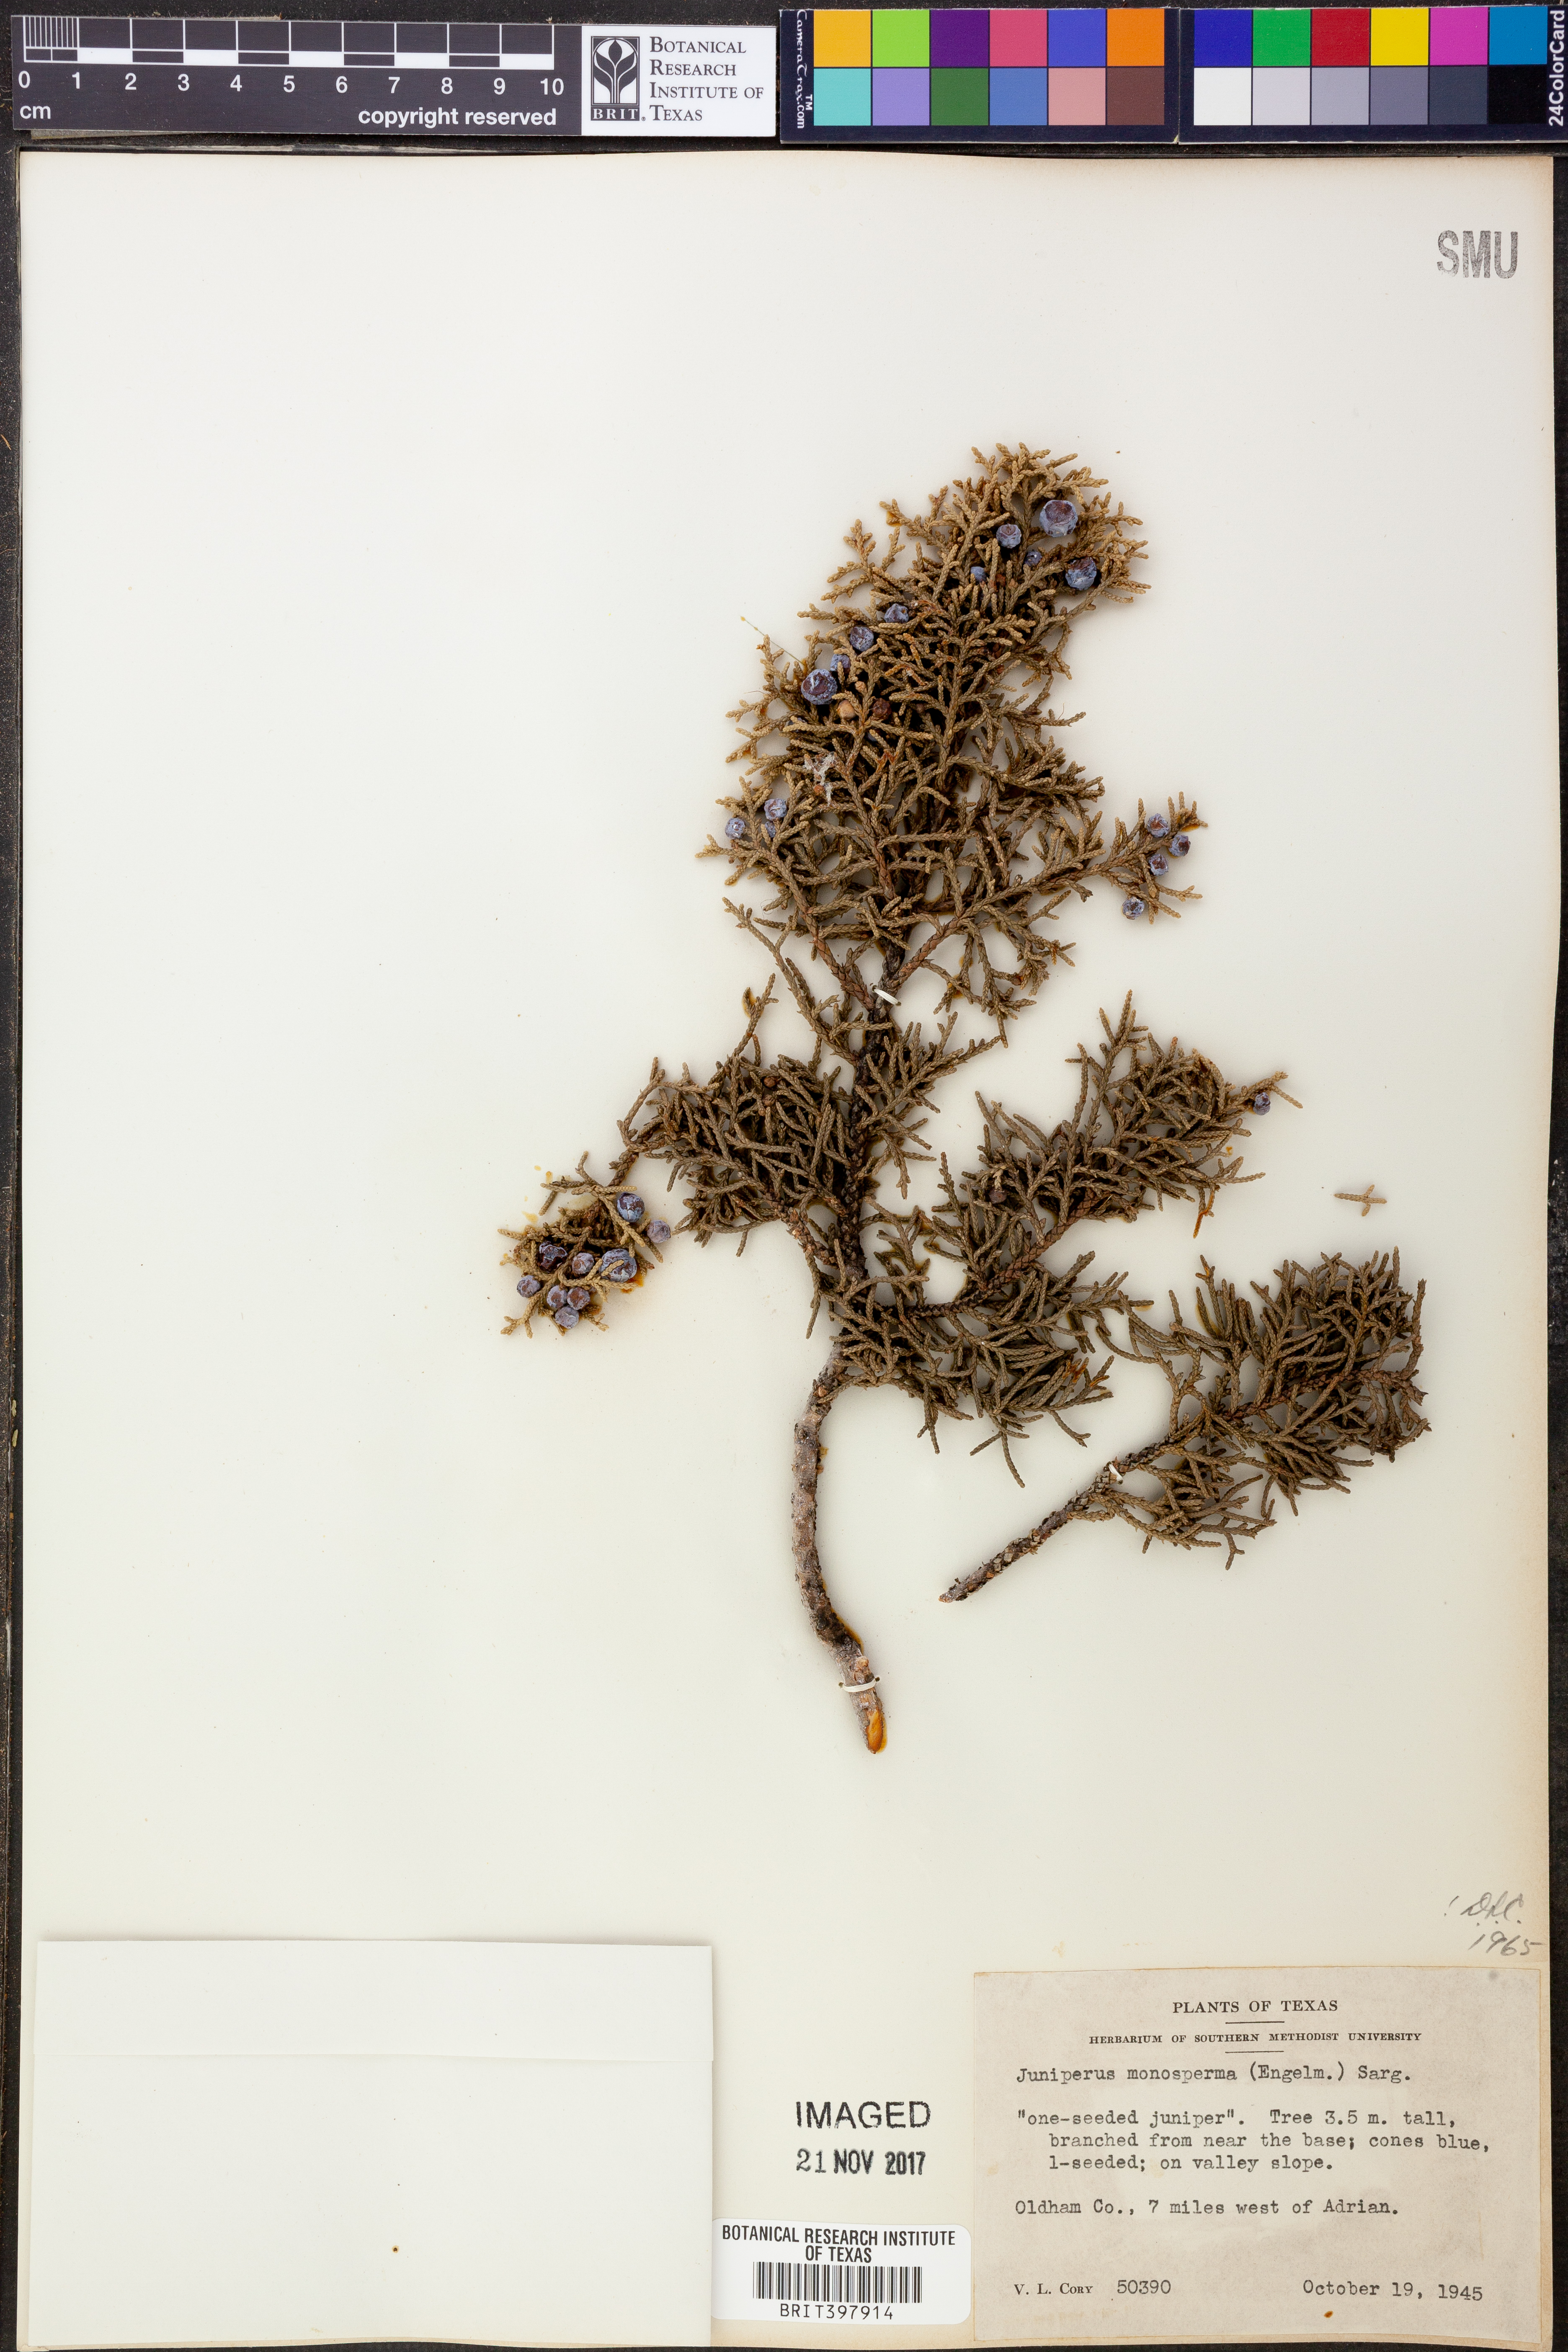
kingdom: Plantae
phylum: Tracheophyta
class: Pinopsida
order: Pinales
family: Cupressaceae
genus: Juniperus
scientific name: Juniperus monosperma
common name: One-seed juniper
